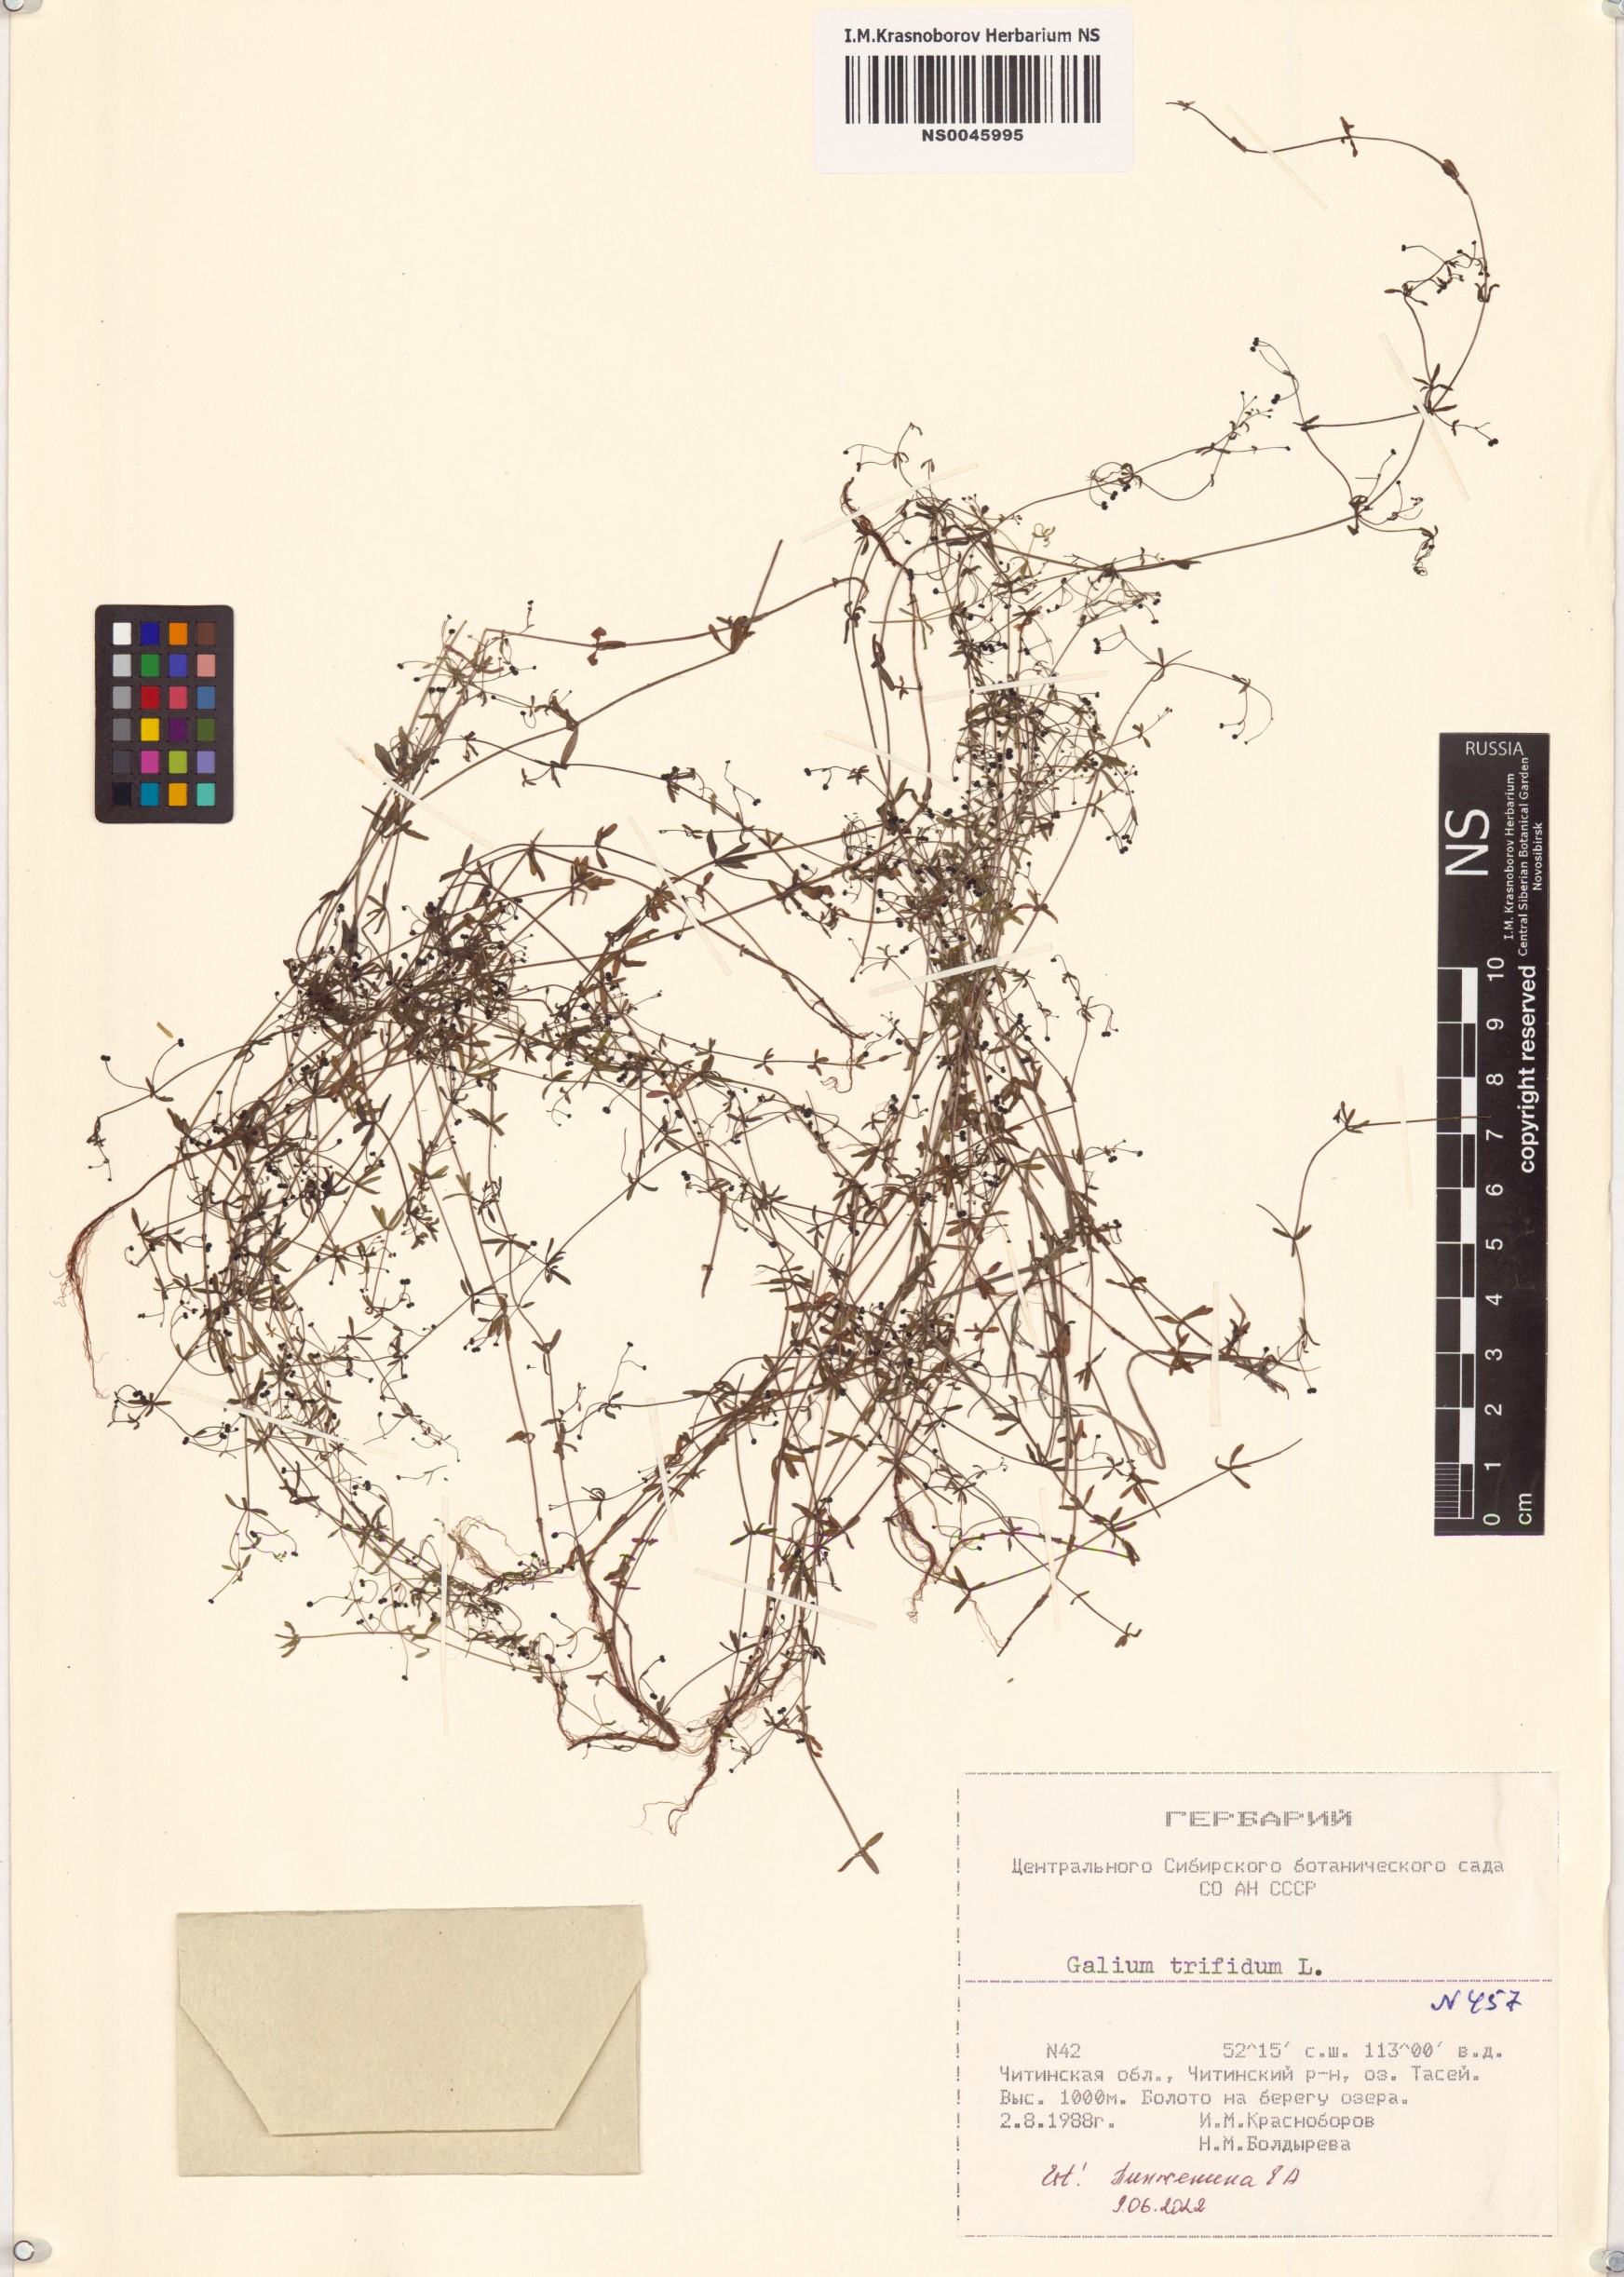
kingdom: Plantae
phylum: Tracheophyta
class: Magnoliopsida
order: Gentianales
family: Rubiaceae
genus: Galium
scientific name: Galium trifidum
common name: Small bedstraw
